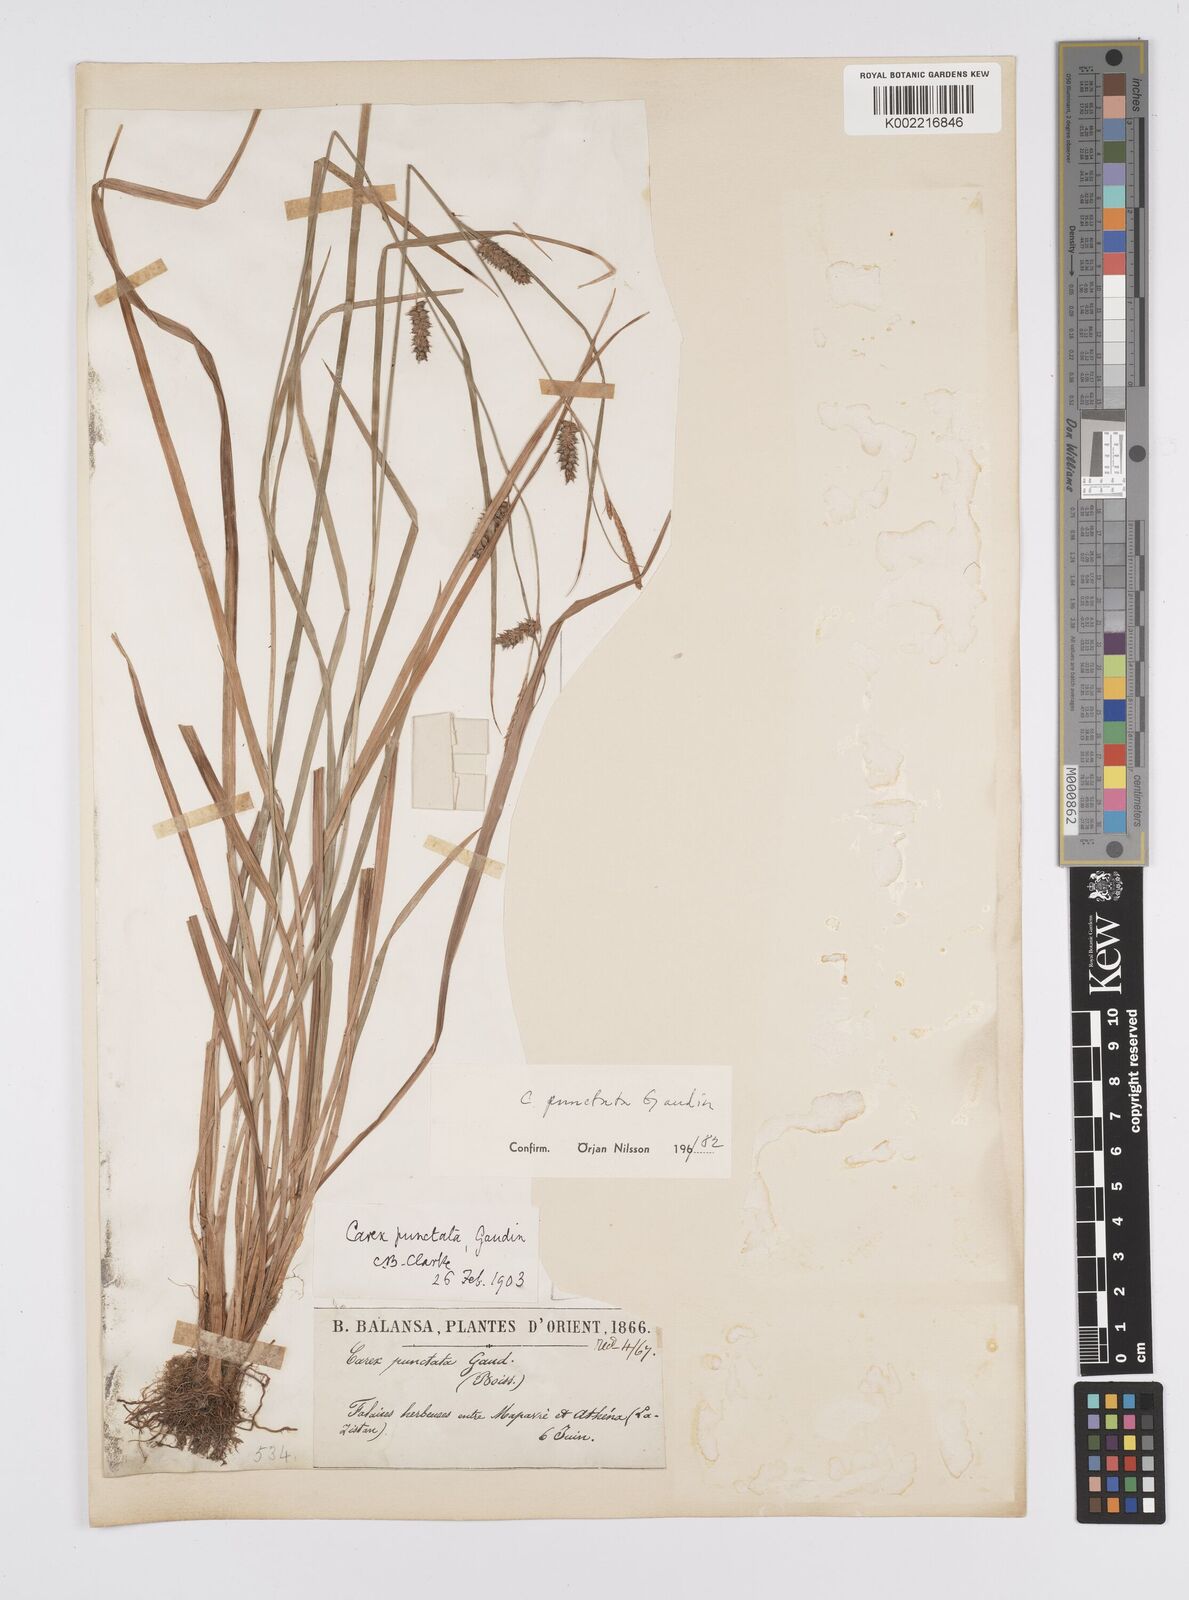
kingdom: Plantae
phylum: Tracheophyta
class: Liliopsida
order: Poales
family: Cyperaceae
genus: Carex
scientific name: Carex punctata
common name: Dotted sedge
